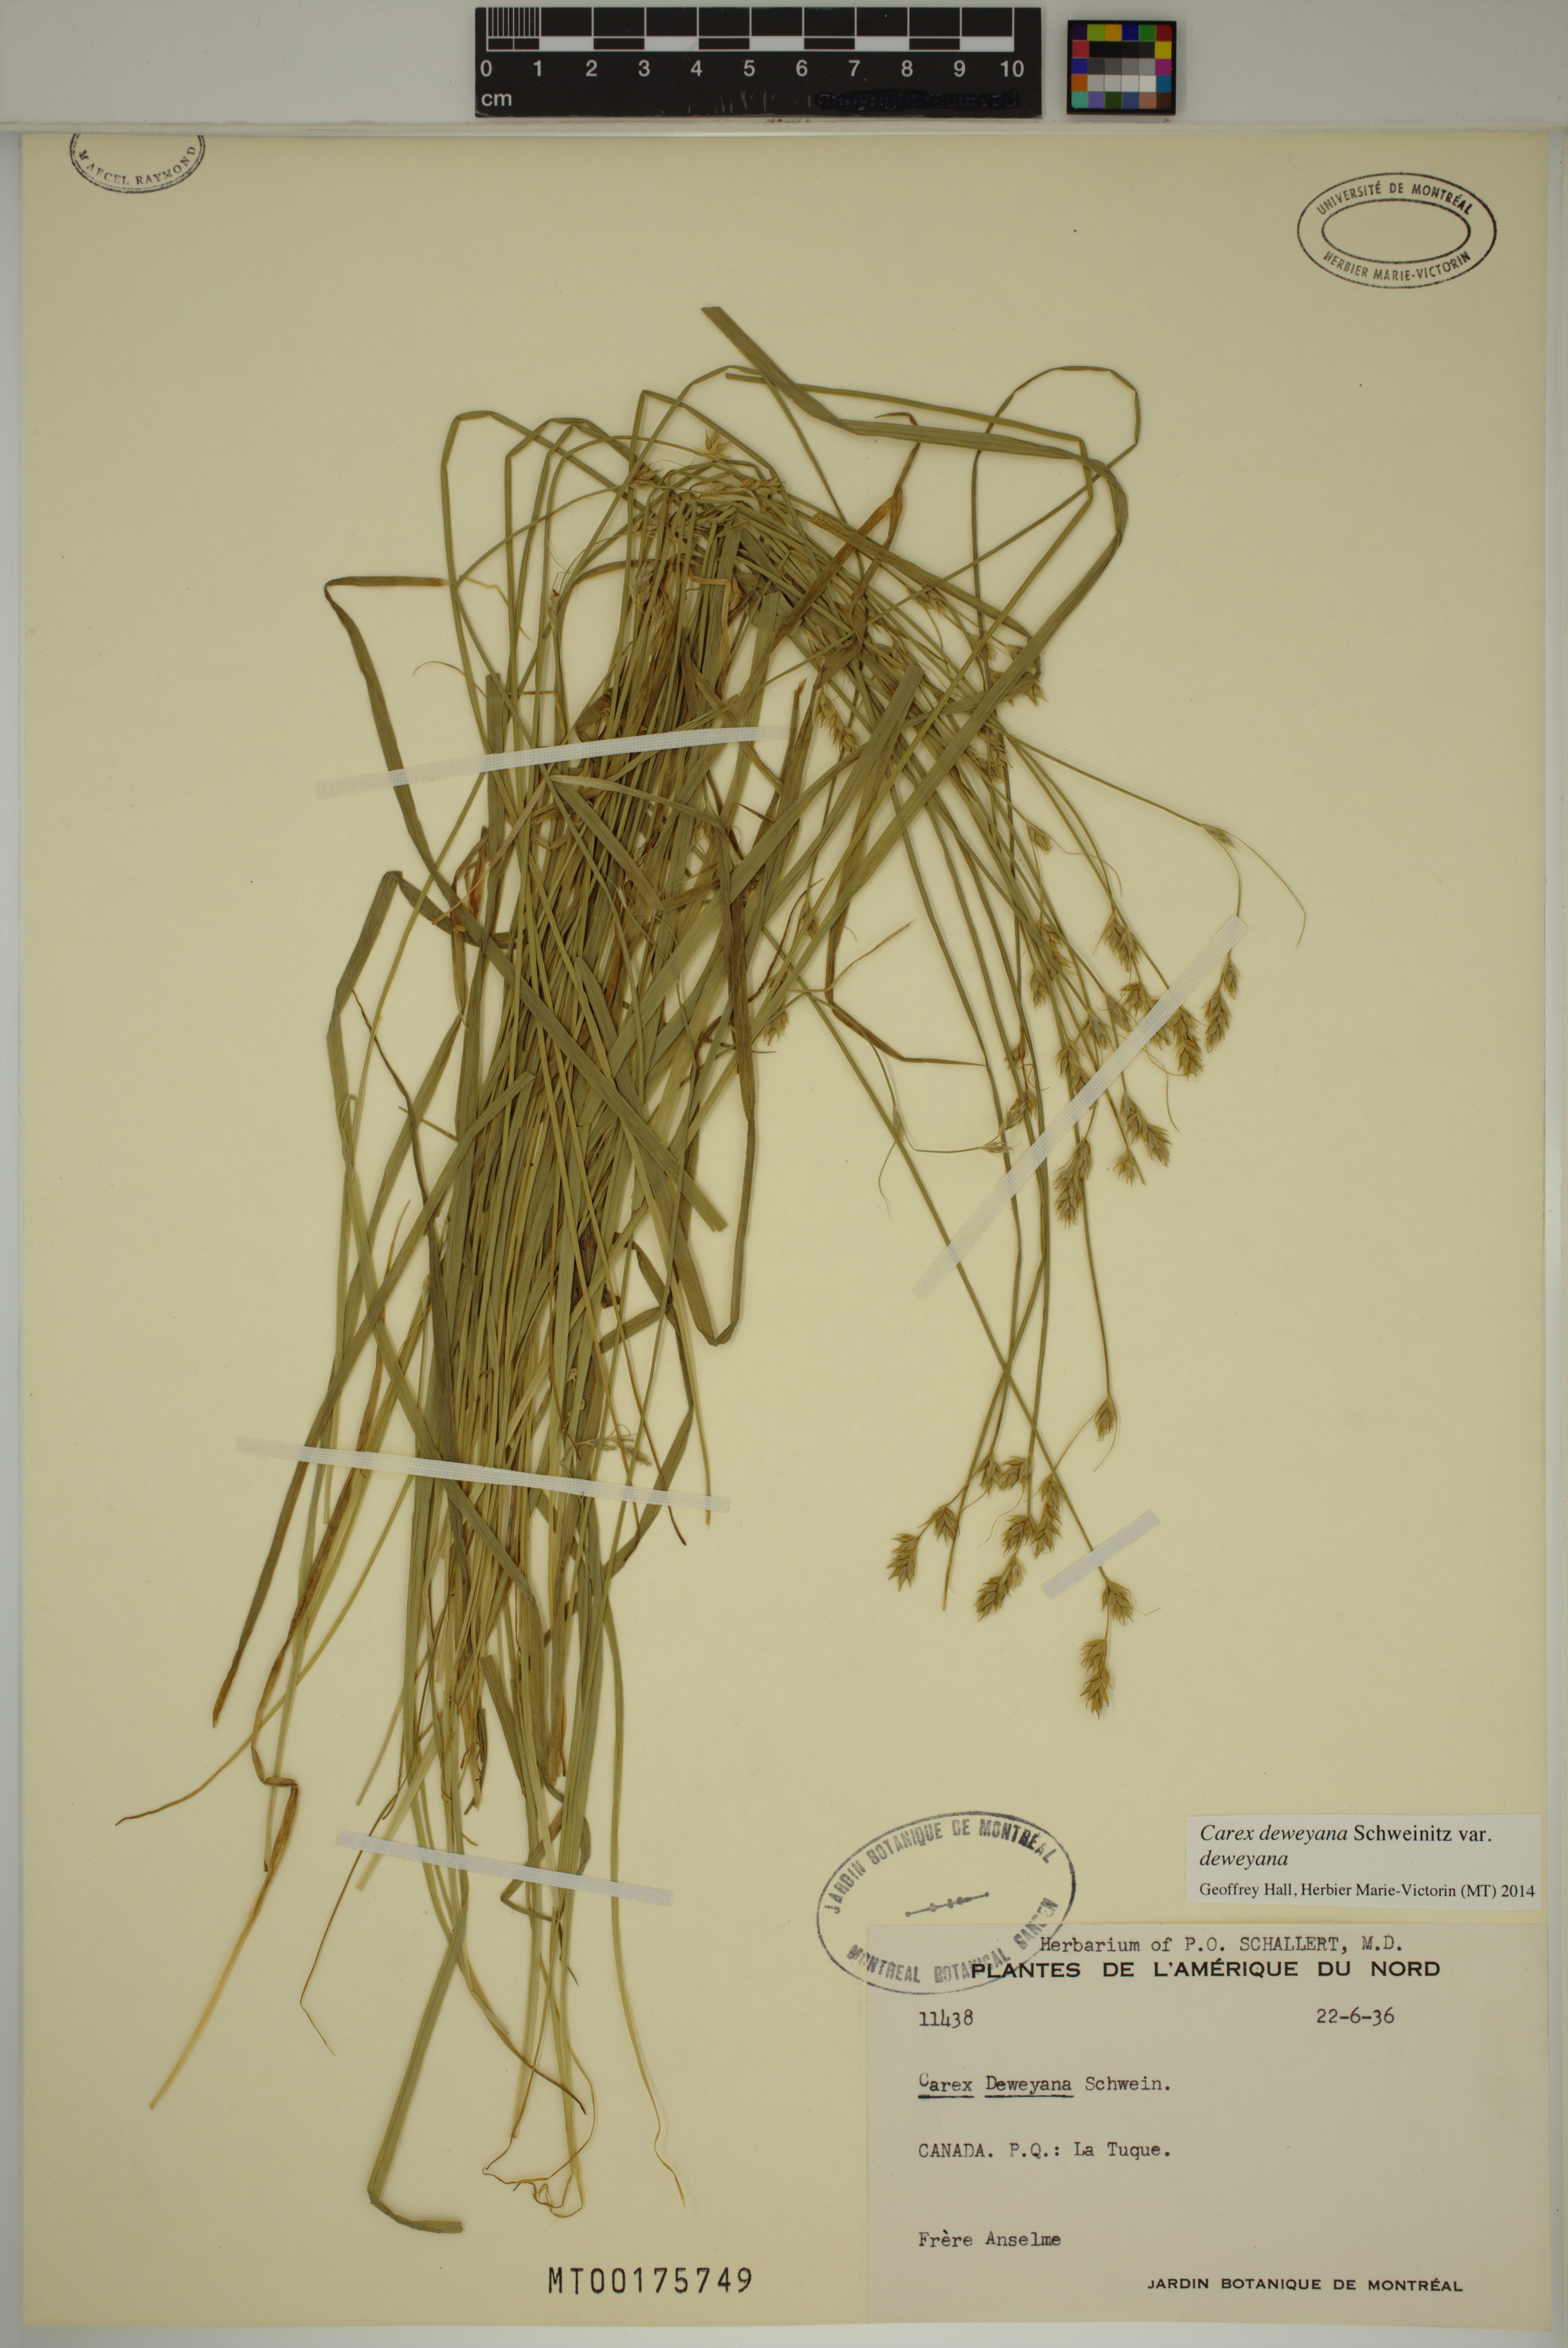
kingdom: Plantae
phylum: Tracheophyta
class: Liliopsida
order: Poales
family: Cyperaceae
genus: Carex
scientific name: Carex deweyana
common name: Dewey's sedge
